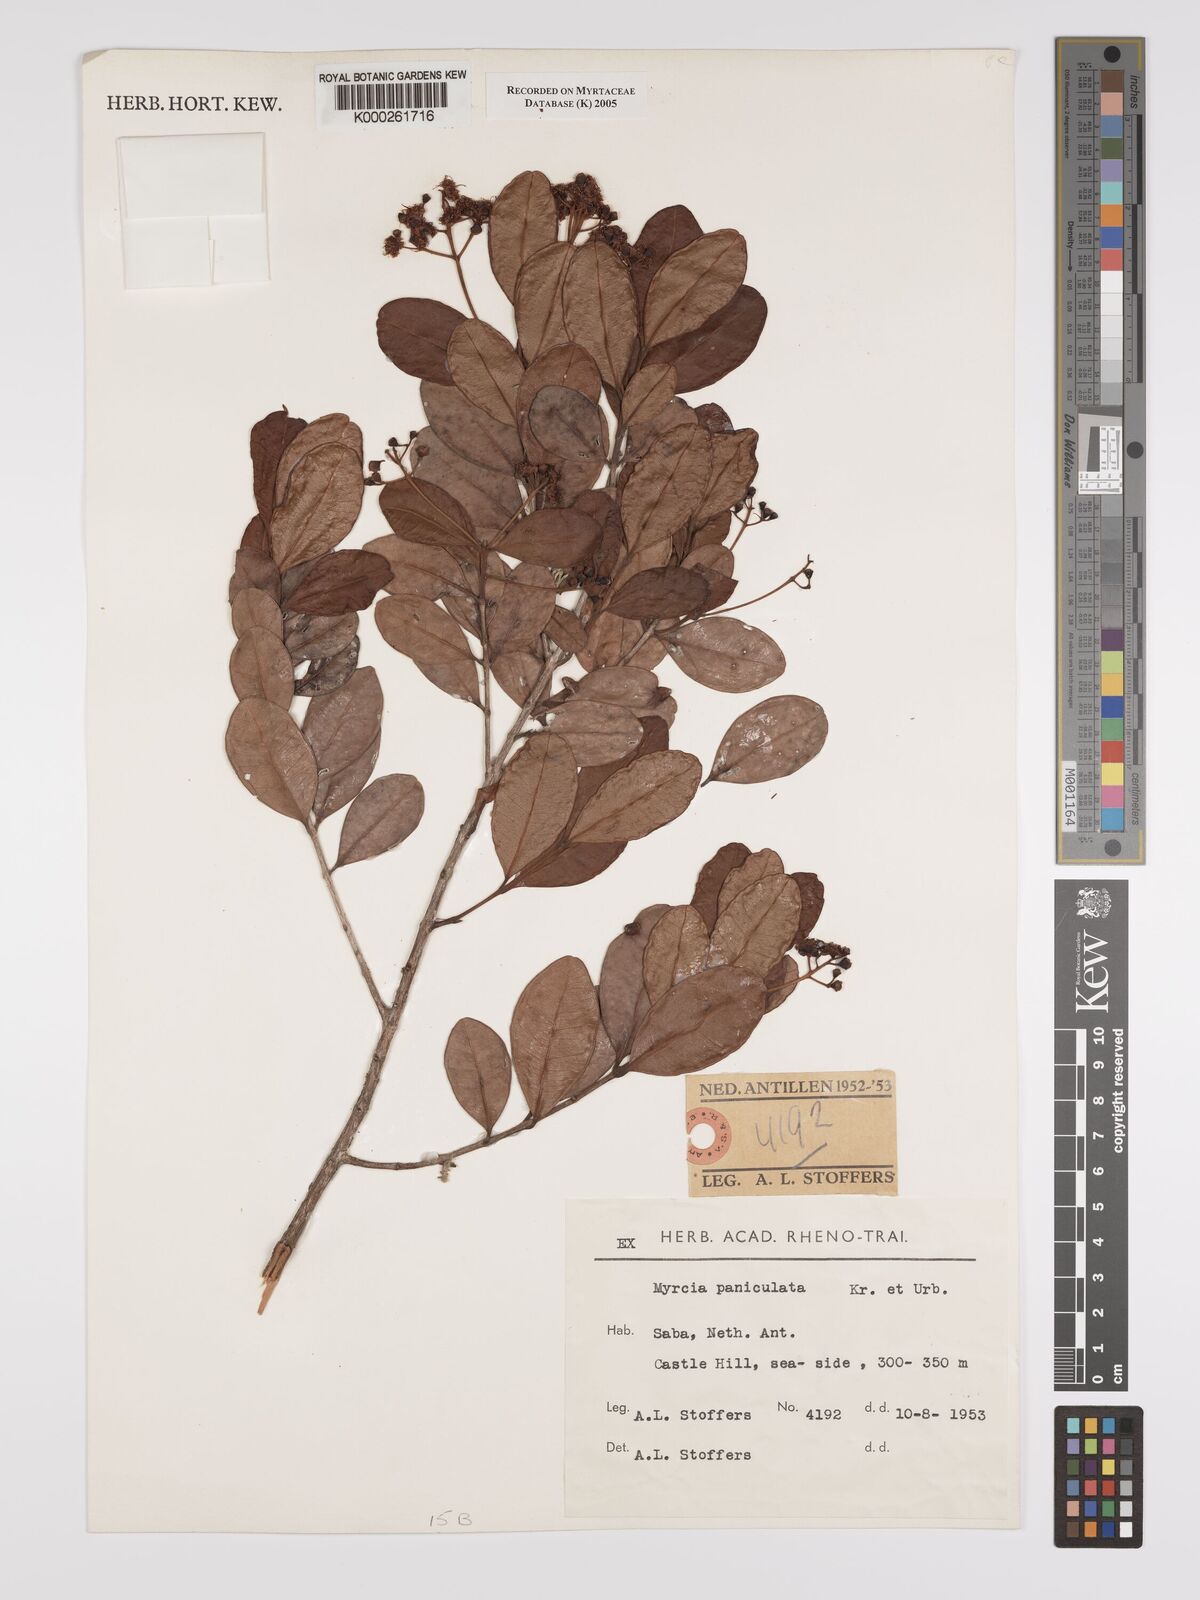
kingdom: Plantae
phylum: Tracheophyta
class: Magnoliopsida
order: Myrtales
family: Myrtaceae
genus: Myrcia
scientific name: Myrcia guianensis
